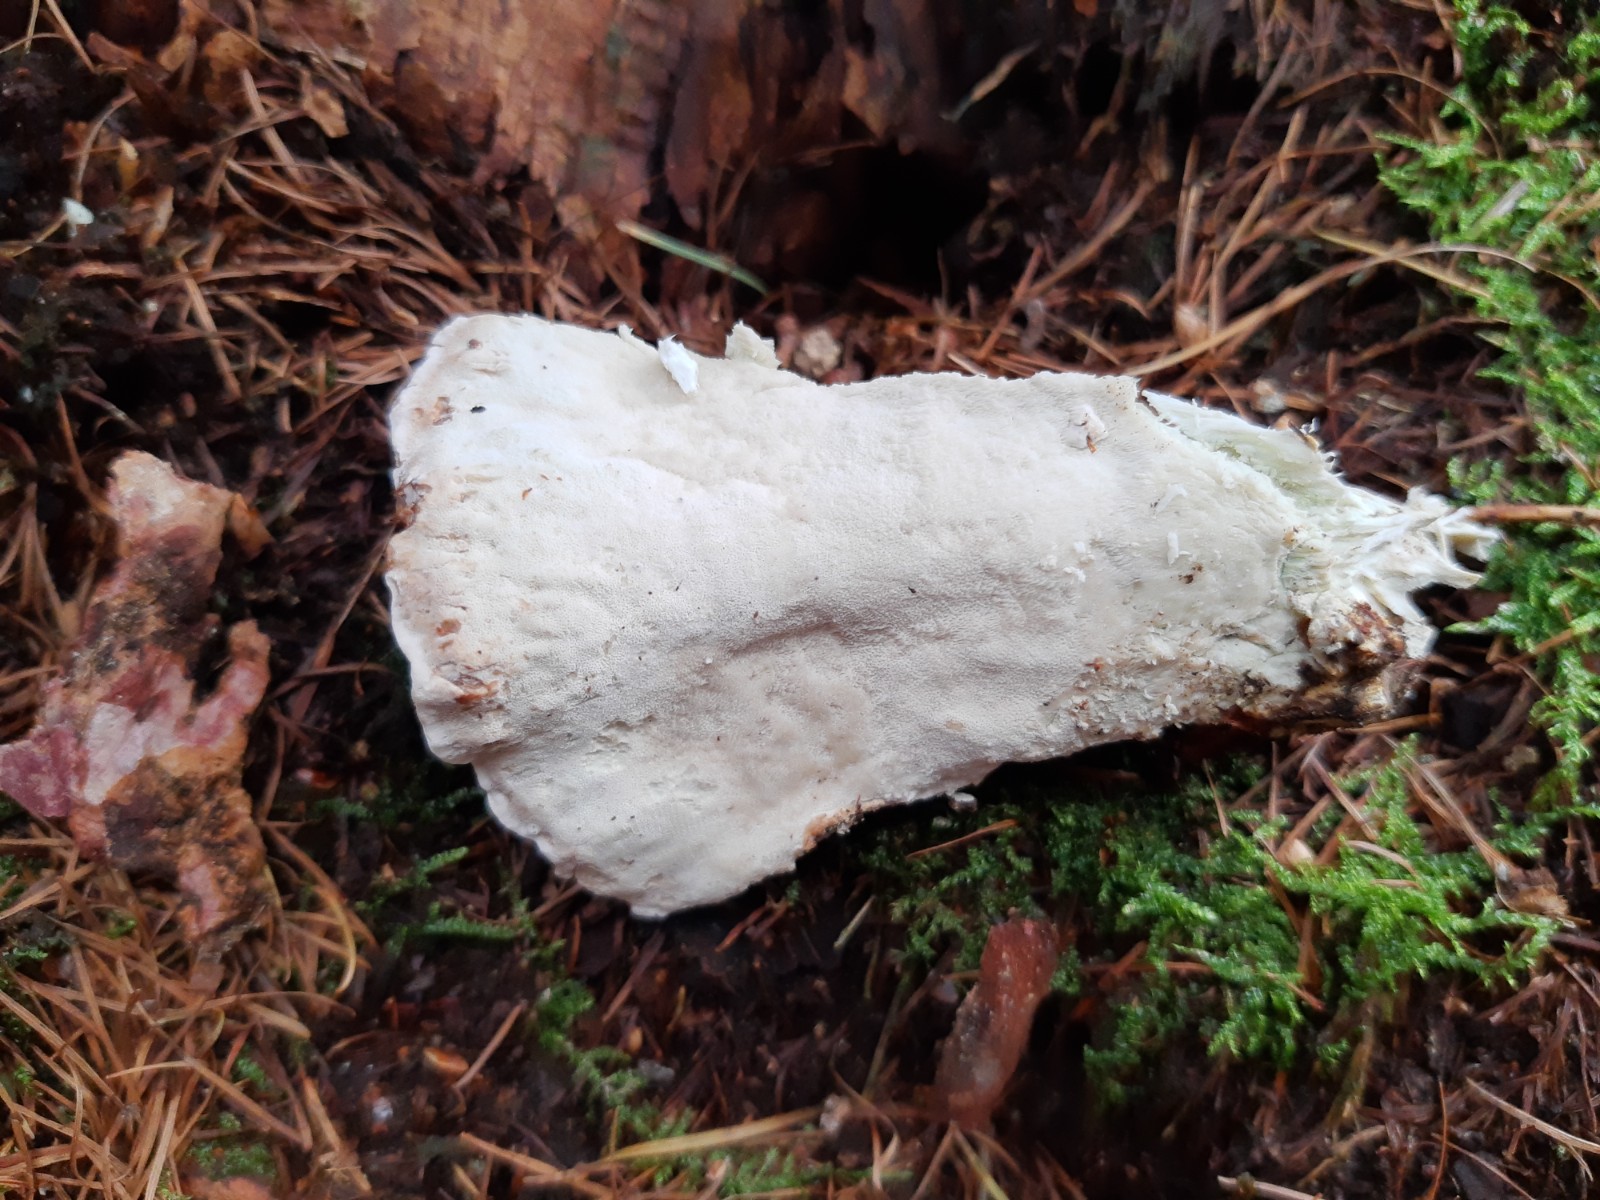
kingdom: Fungi
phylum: Basidiomycota
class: Agaricomycetes
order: Polyporales
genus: Calcipostia
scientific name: Calcipostia guttulata
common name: dråbe-kødporesvamp
